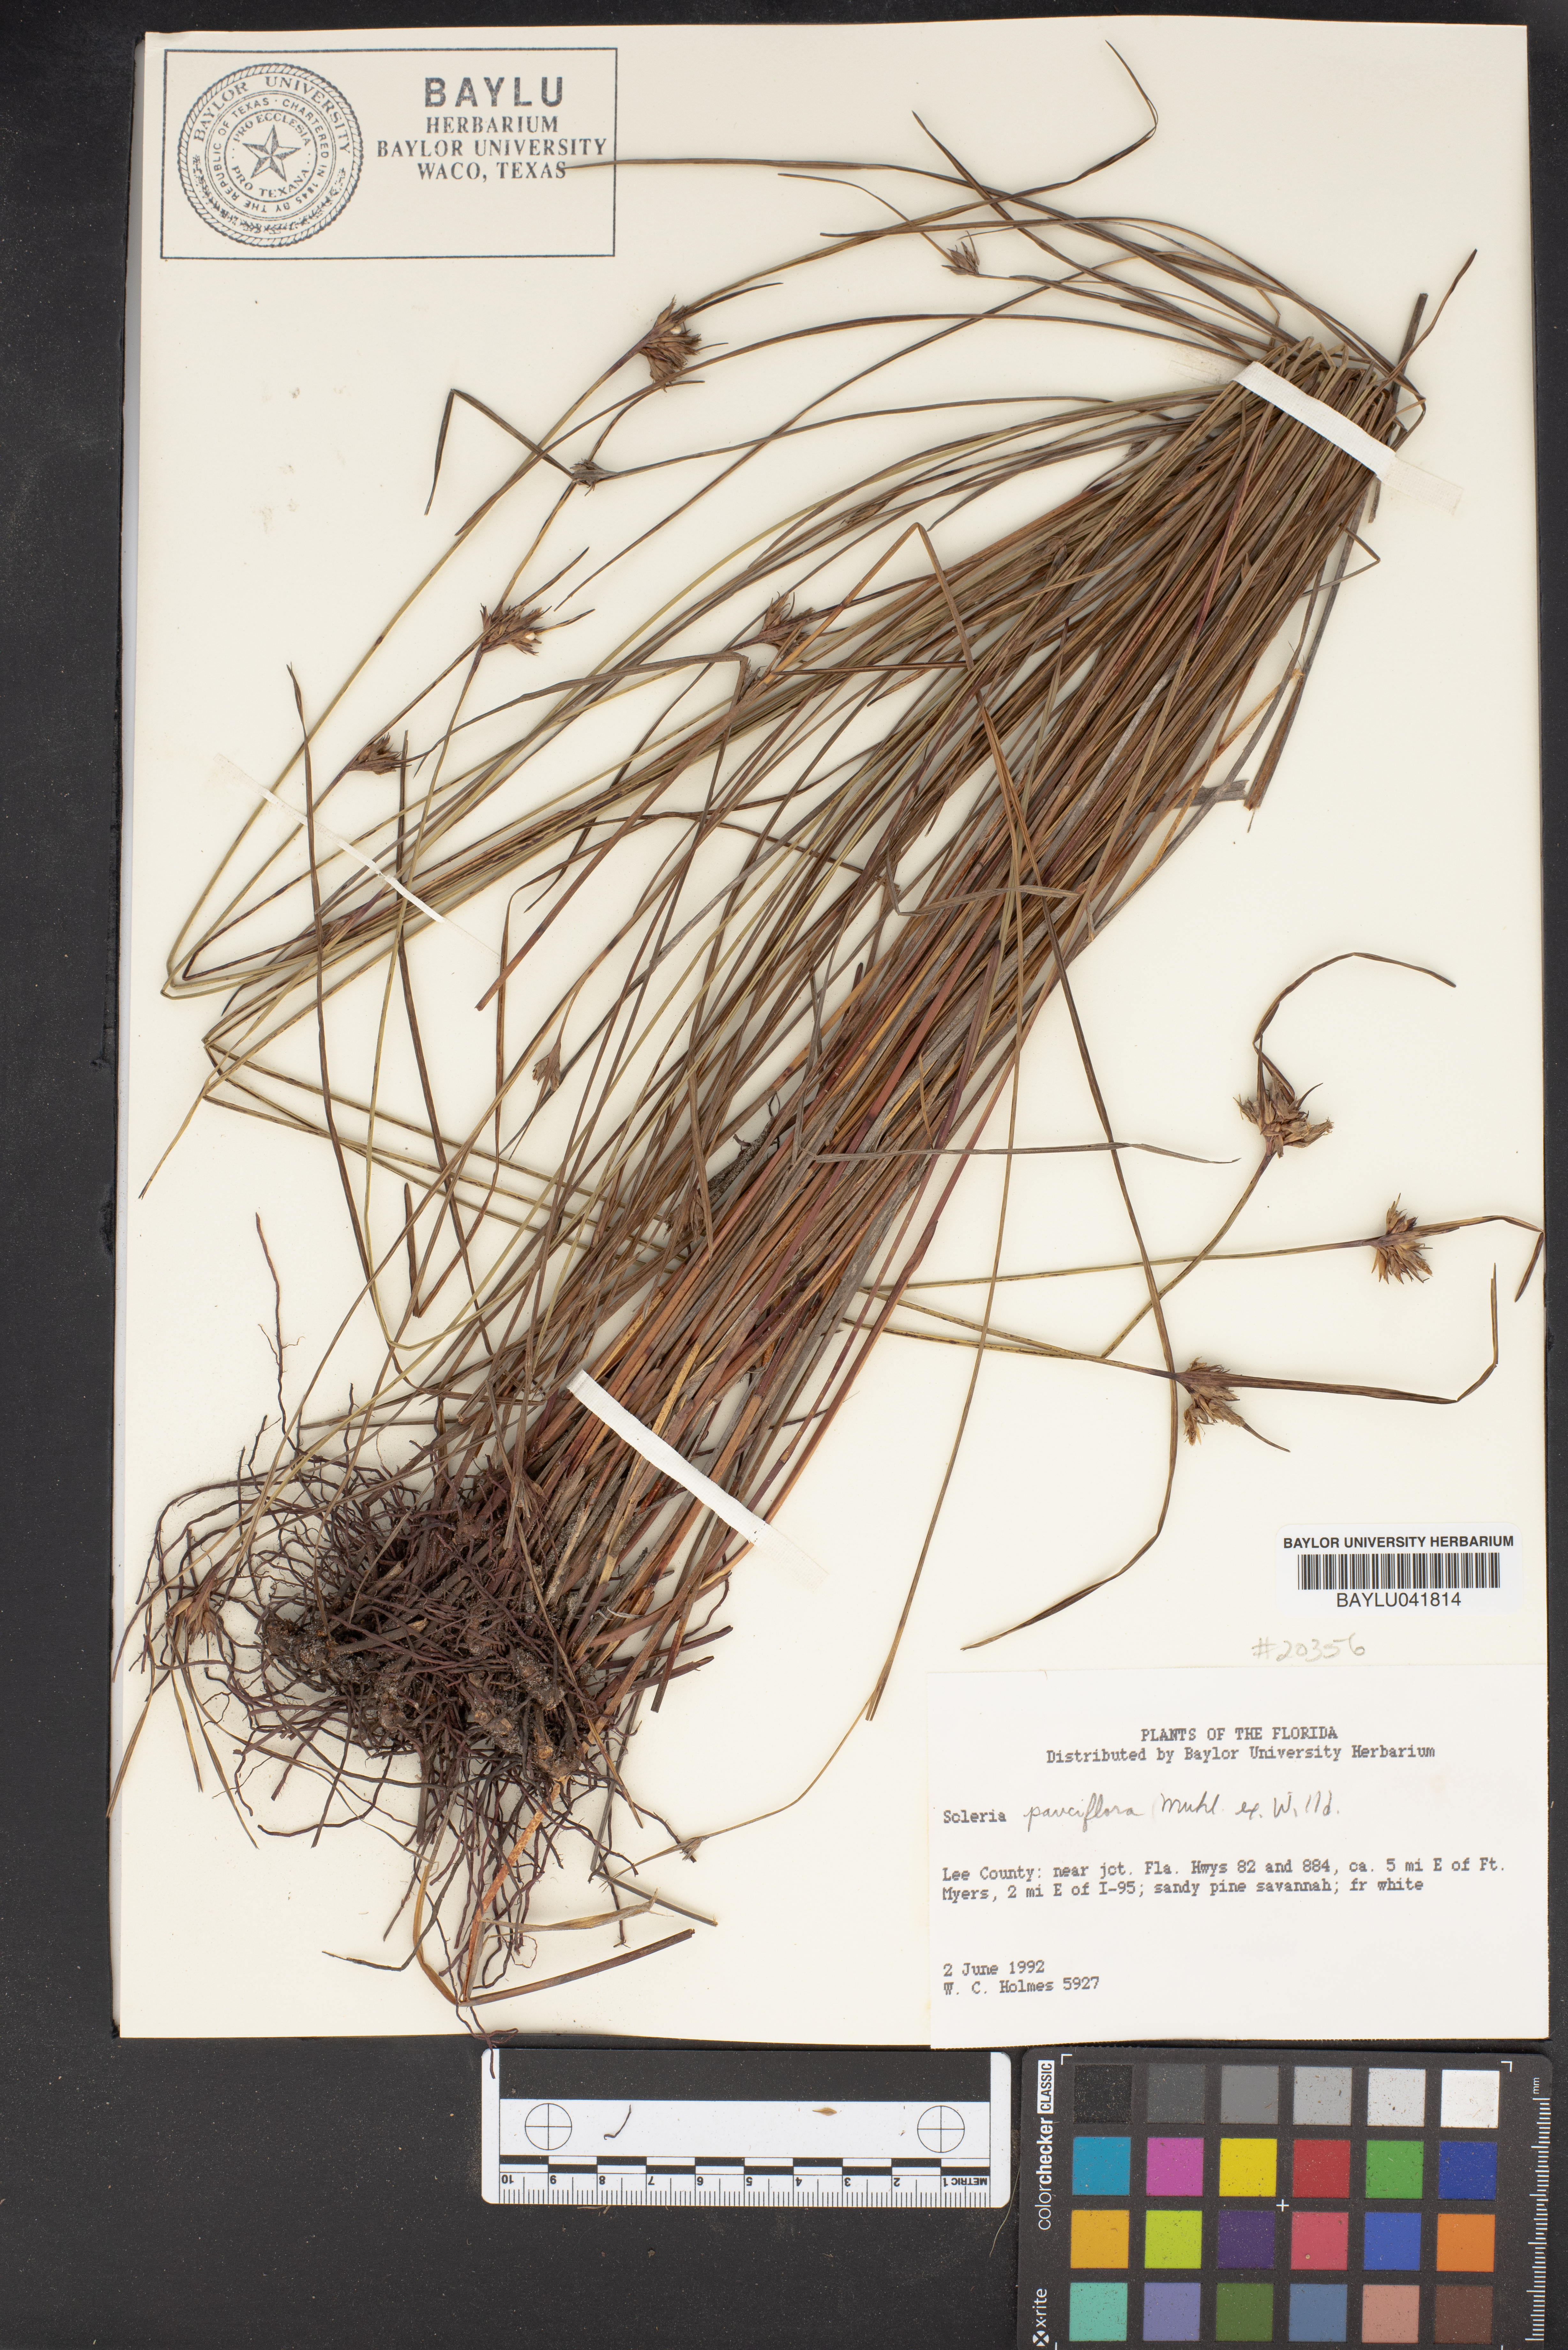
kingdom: Plantae
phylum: Tracheophyta
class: Liliopsida
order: Poales
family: Cyperaceae
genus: Scleria
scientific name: Scleria pauciflora
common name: Few-flowered nutrush
